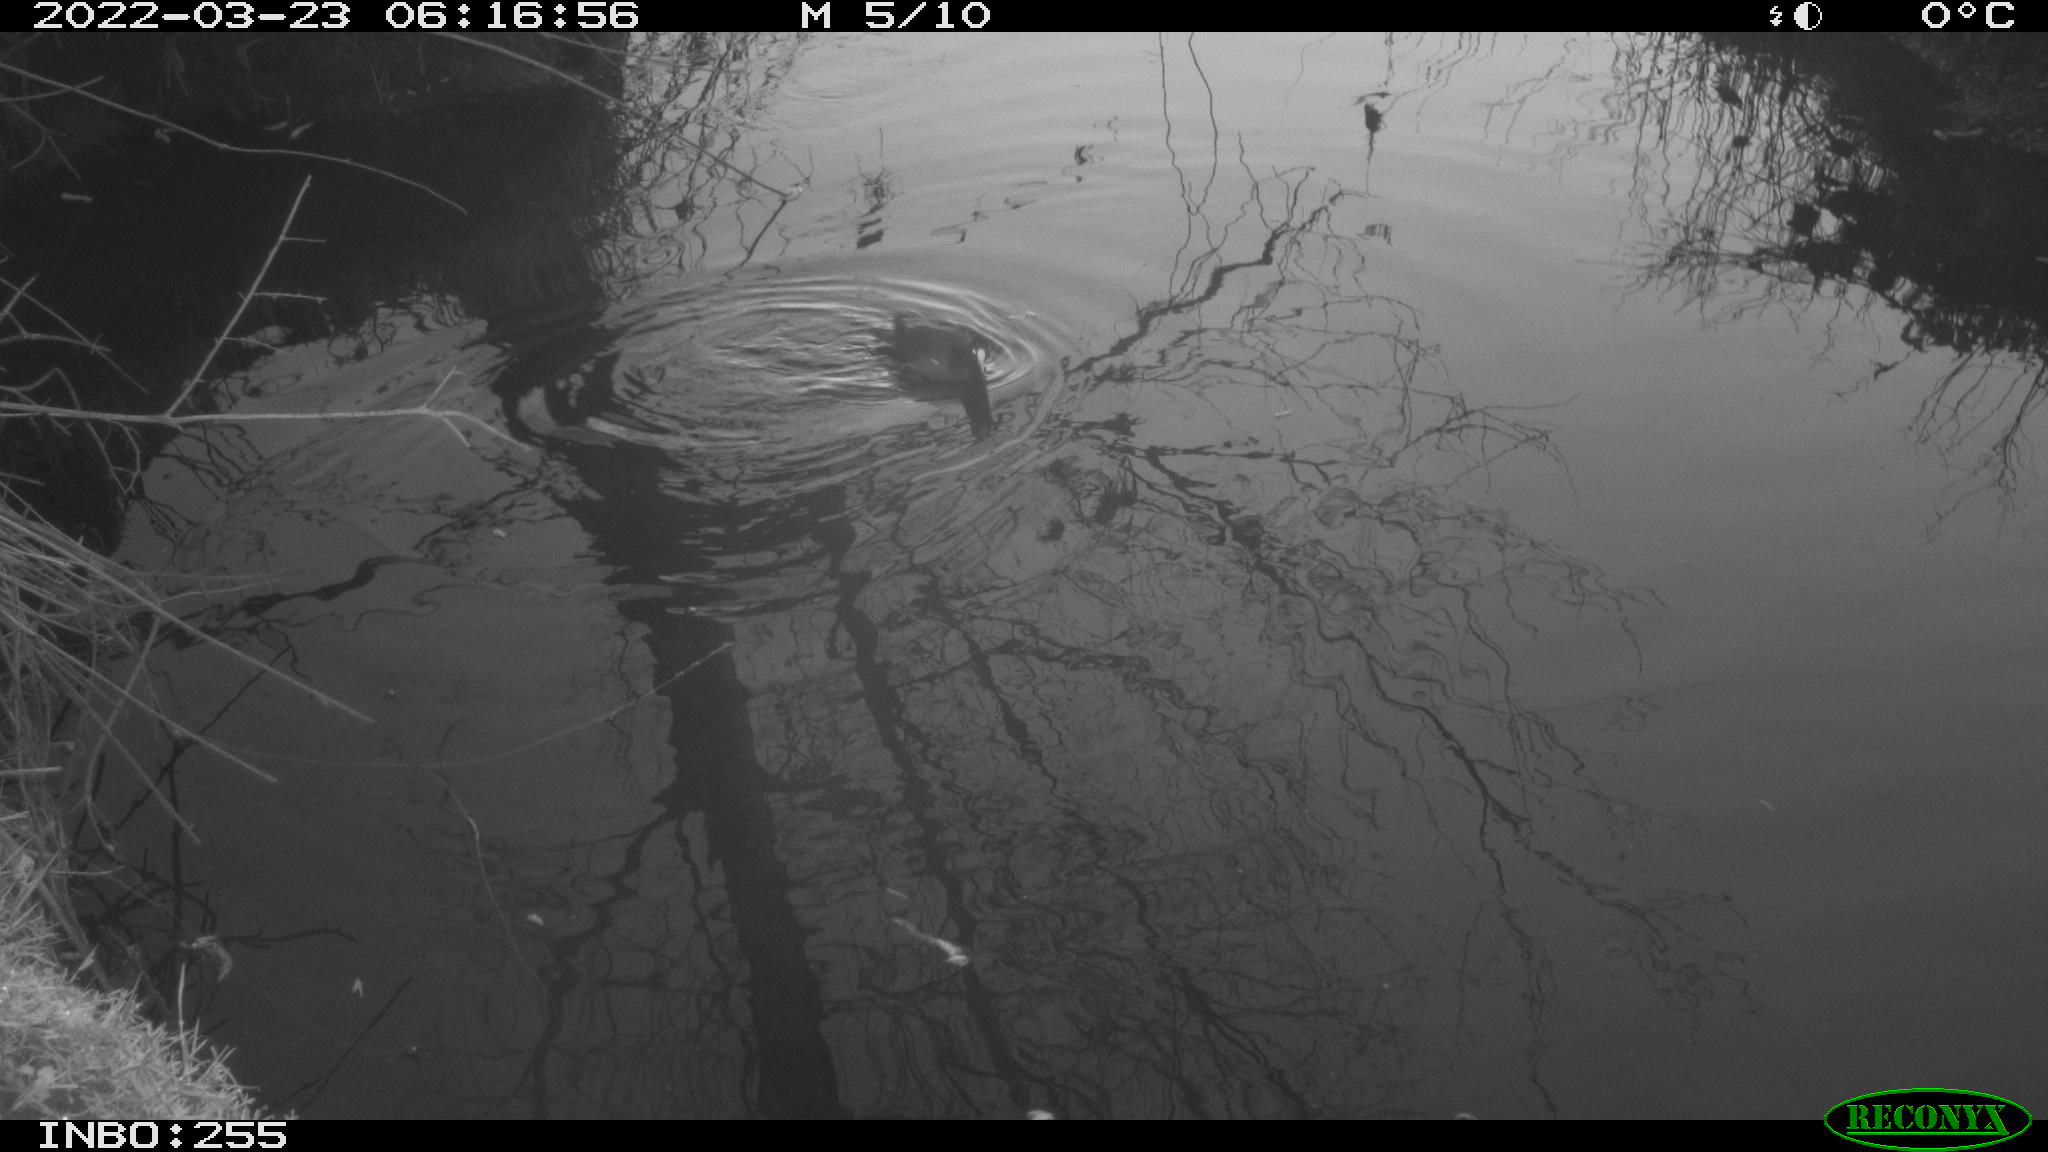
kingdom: Animalia
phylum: Chordata
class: Aves
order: Gruiformes
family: Rallidae
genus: Fulica
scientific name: Fulica atra
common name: Eurasian coot
